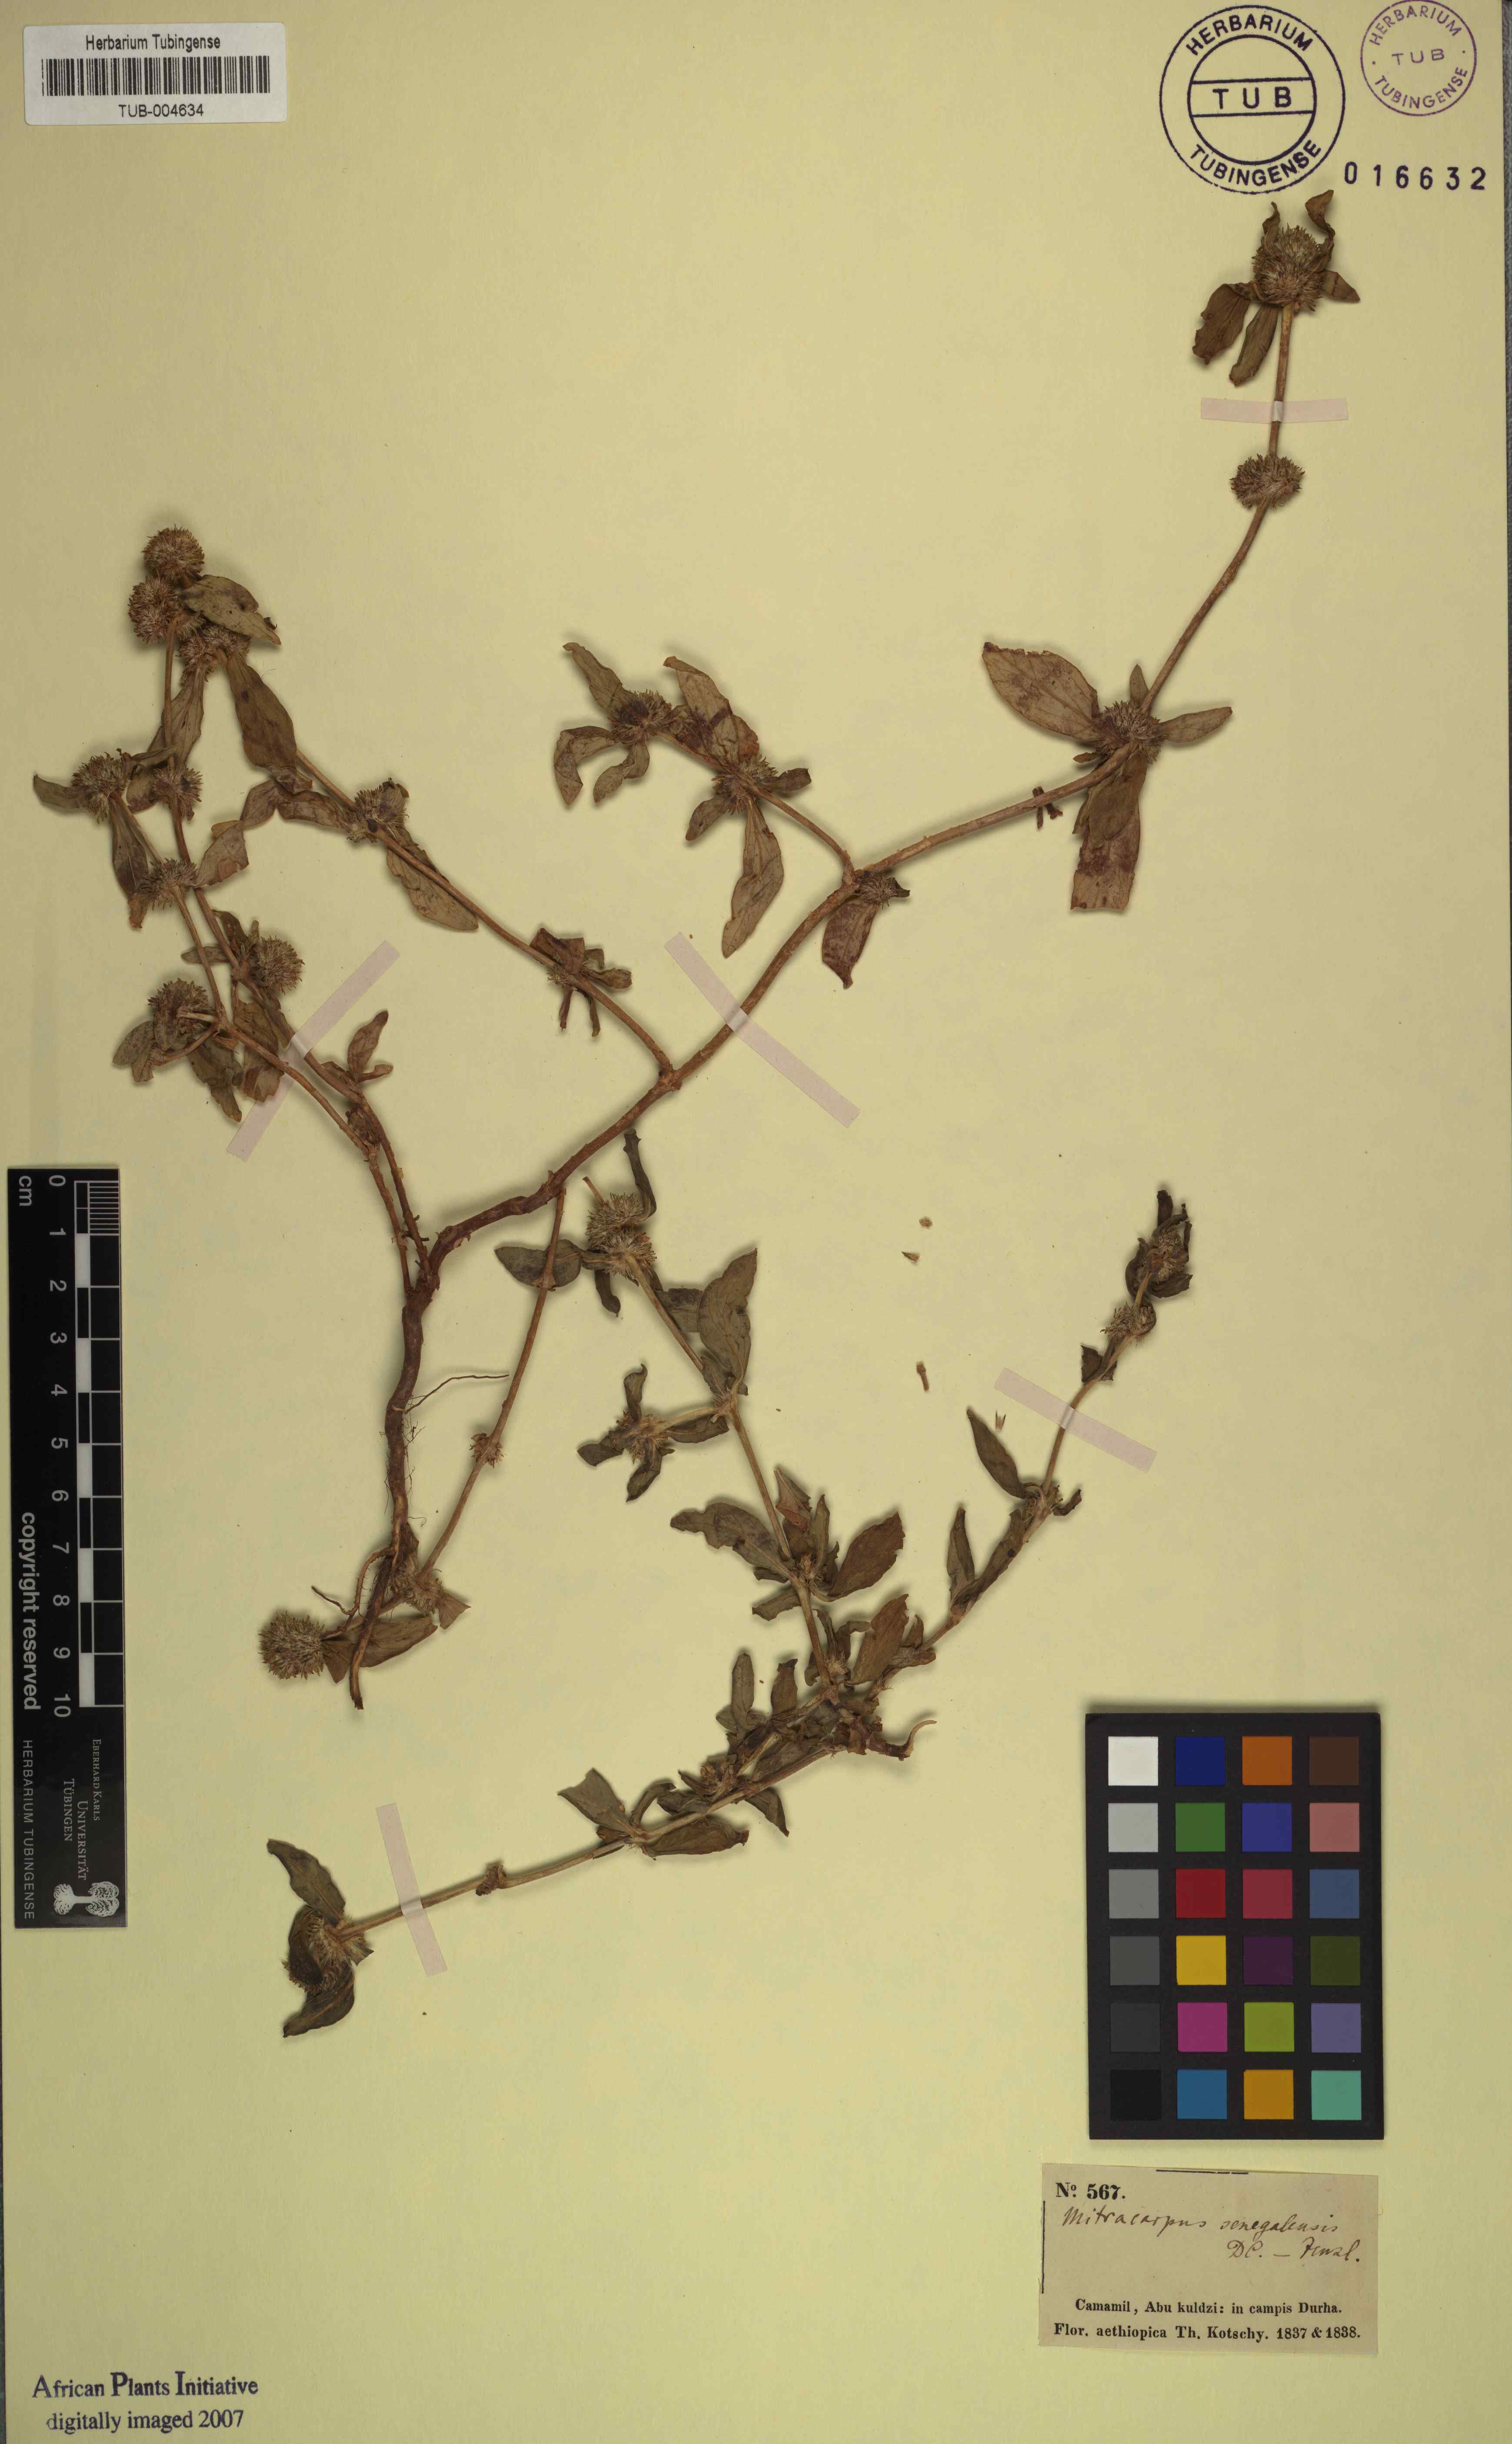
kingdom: Plantae
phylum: Tracheophyta
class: Magnoliopsida
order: Gentianales
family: Rubiaceae
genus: Mitracarpus
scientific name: Mitracarpus hirtus
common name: Tropical girdlepod
